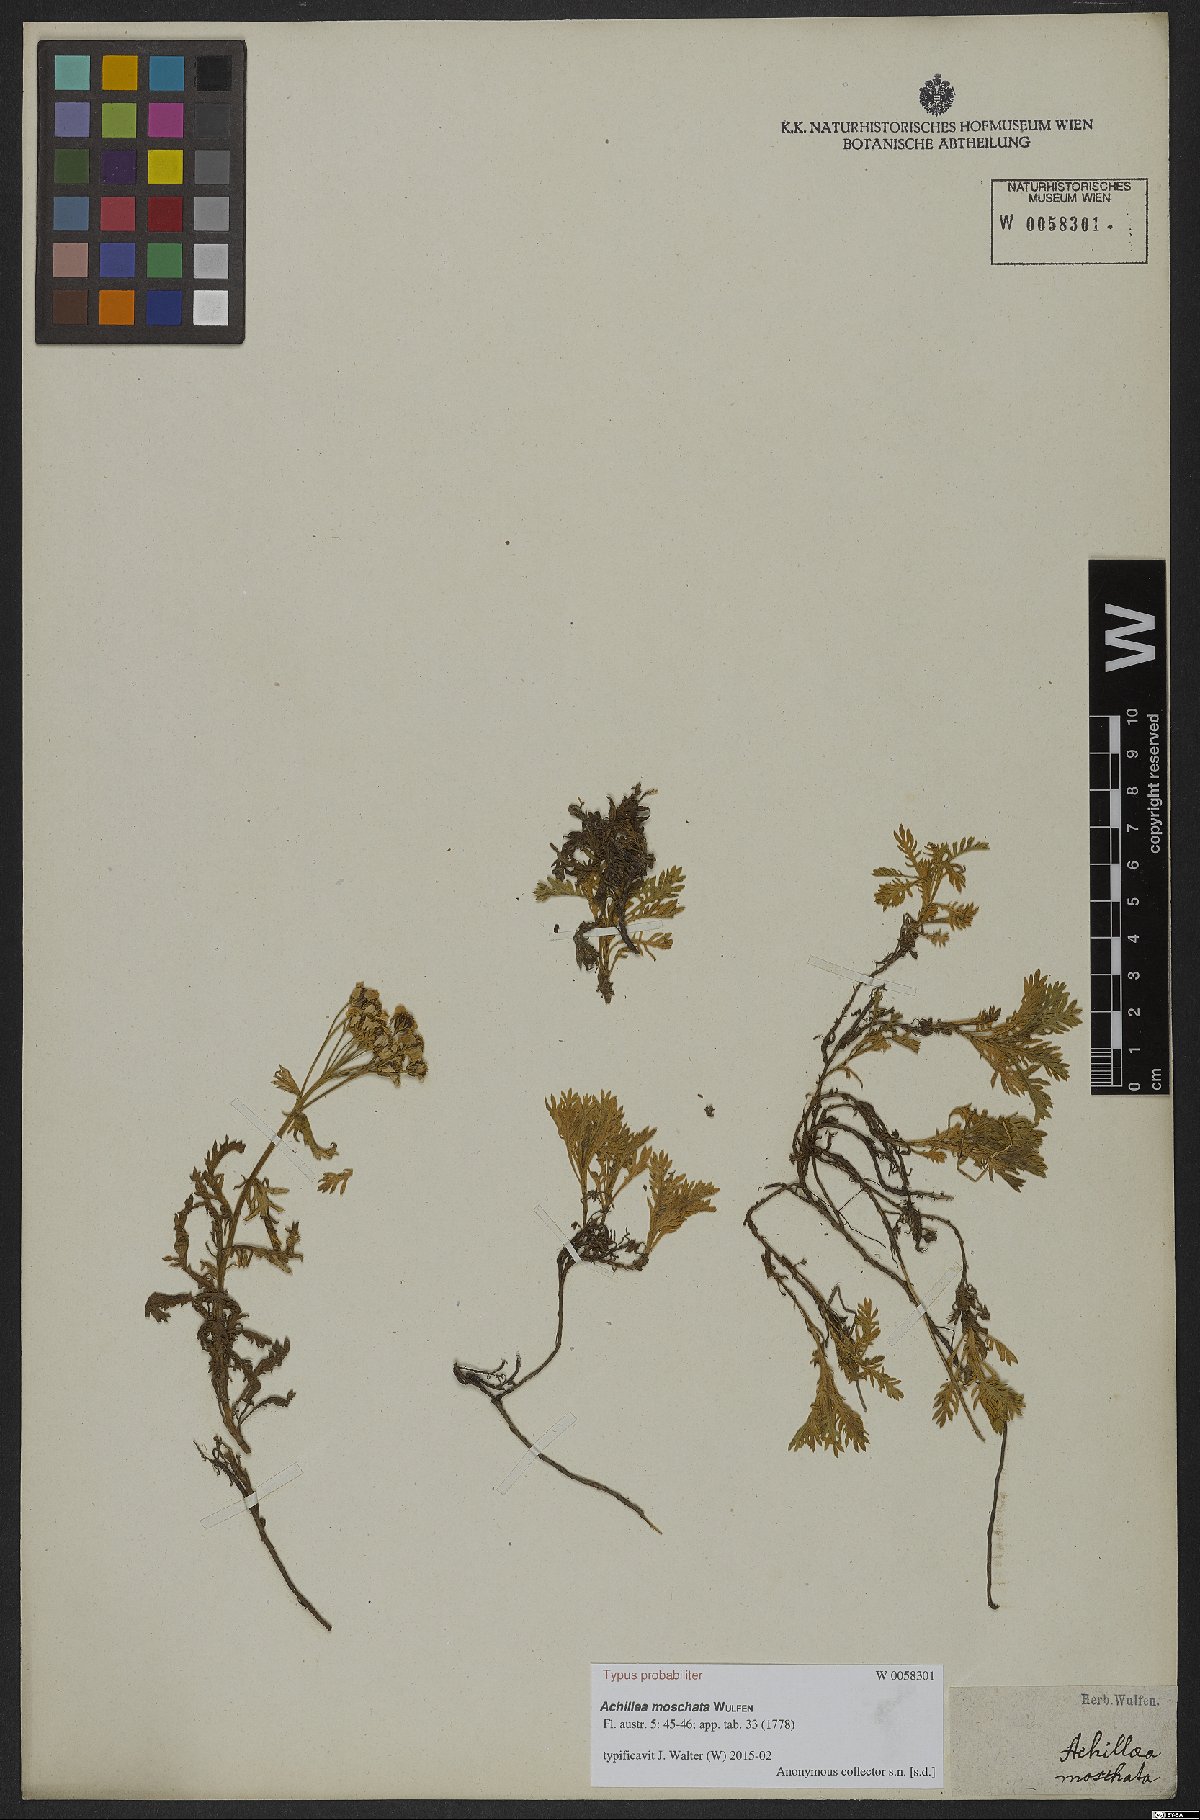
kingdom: Plantae
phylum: Tracheophyta
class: Magnoliopsida
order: Asterales
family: Asteraceae
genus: Achillea
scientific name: Achillea erba-rotta
